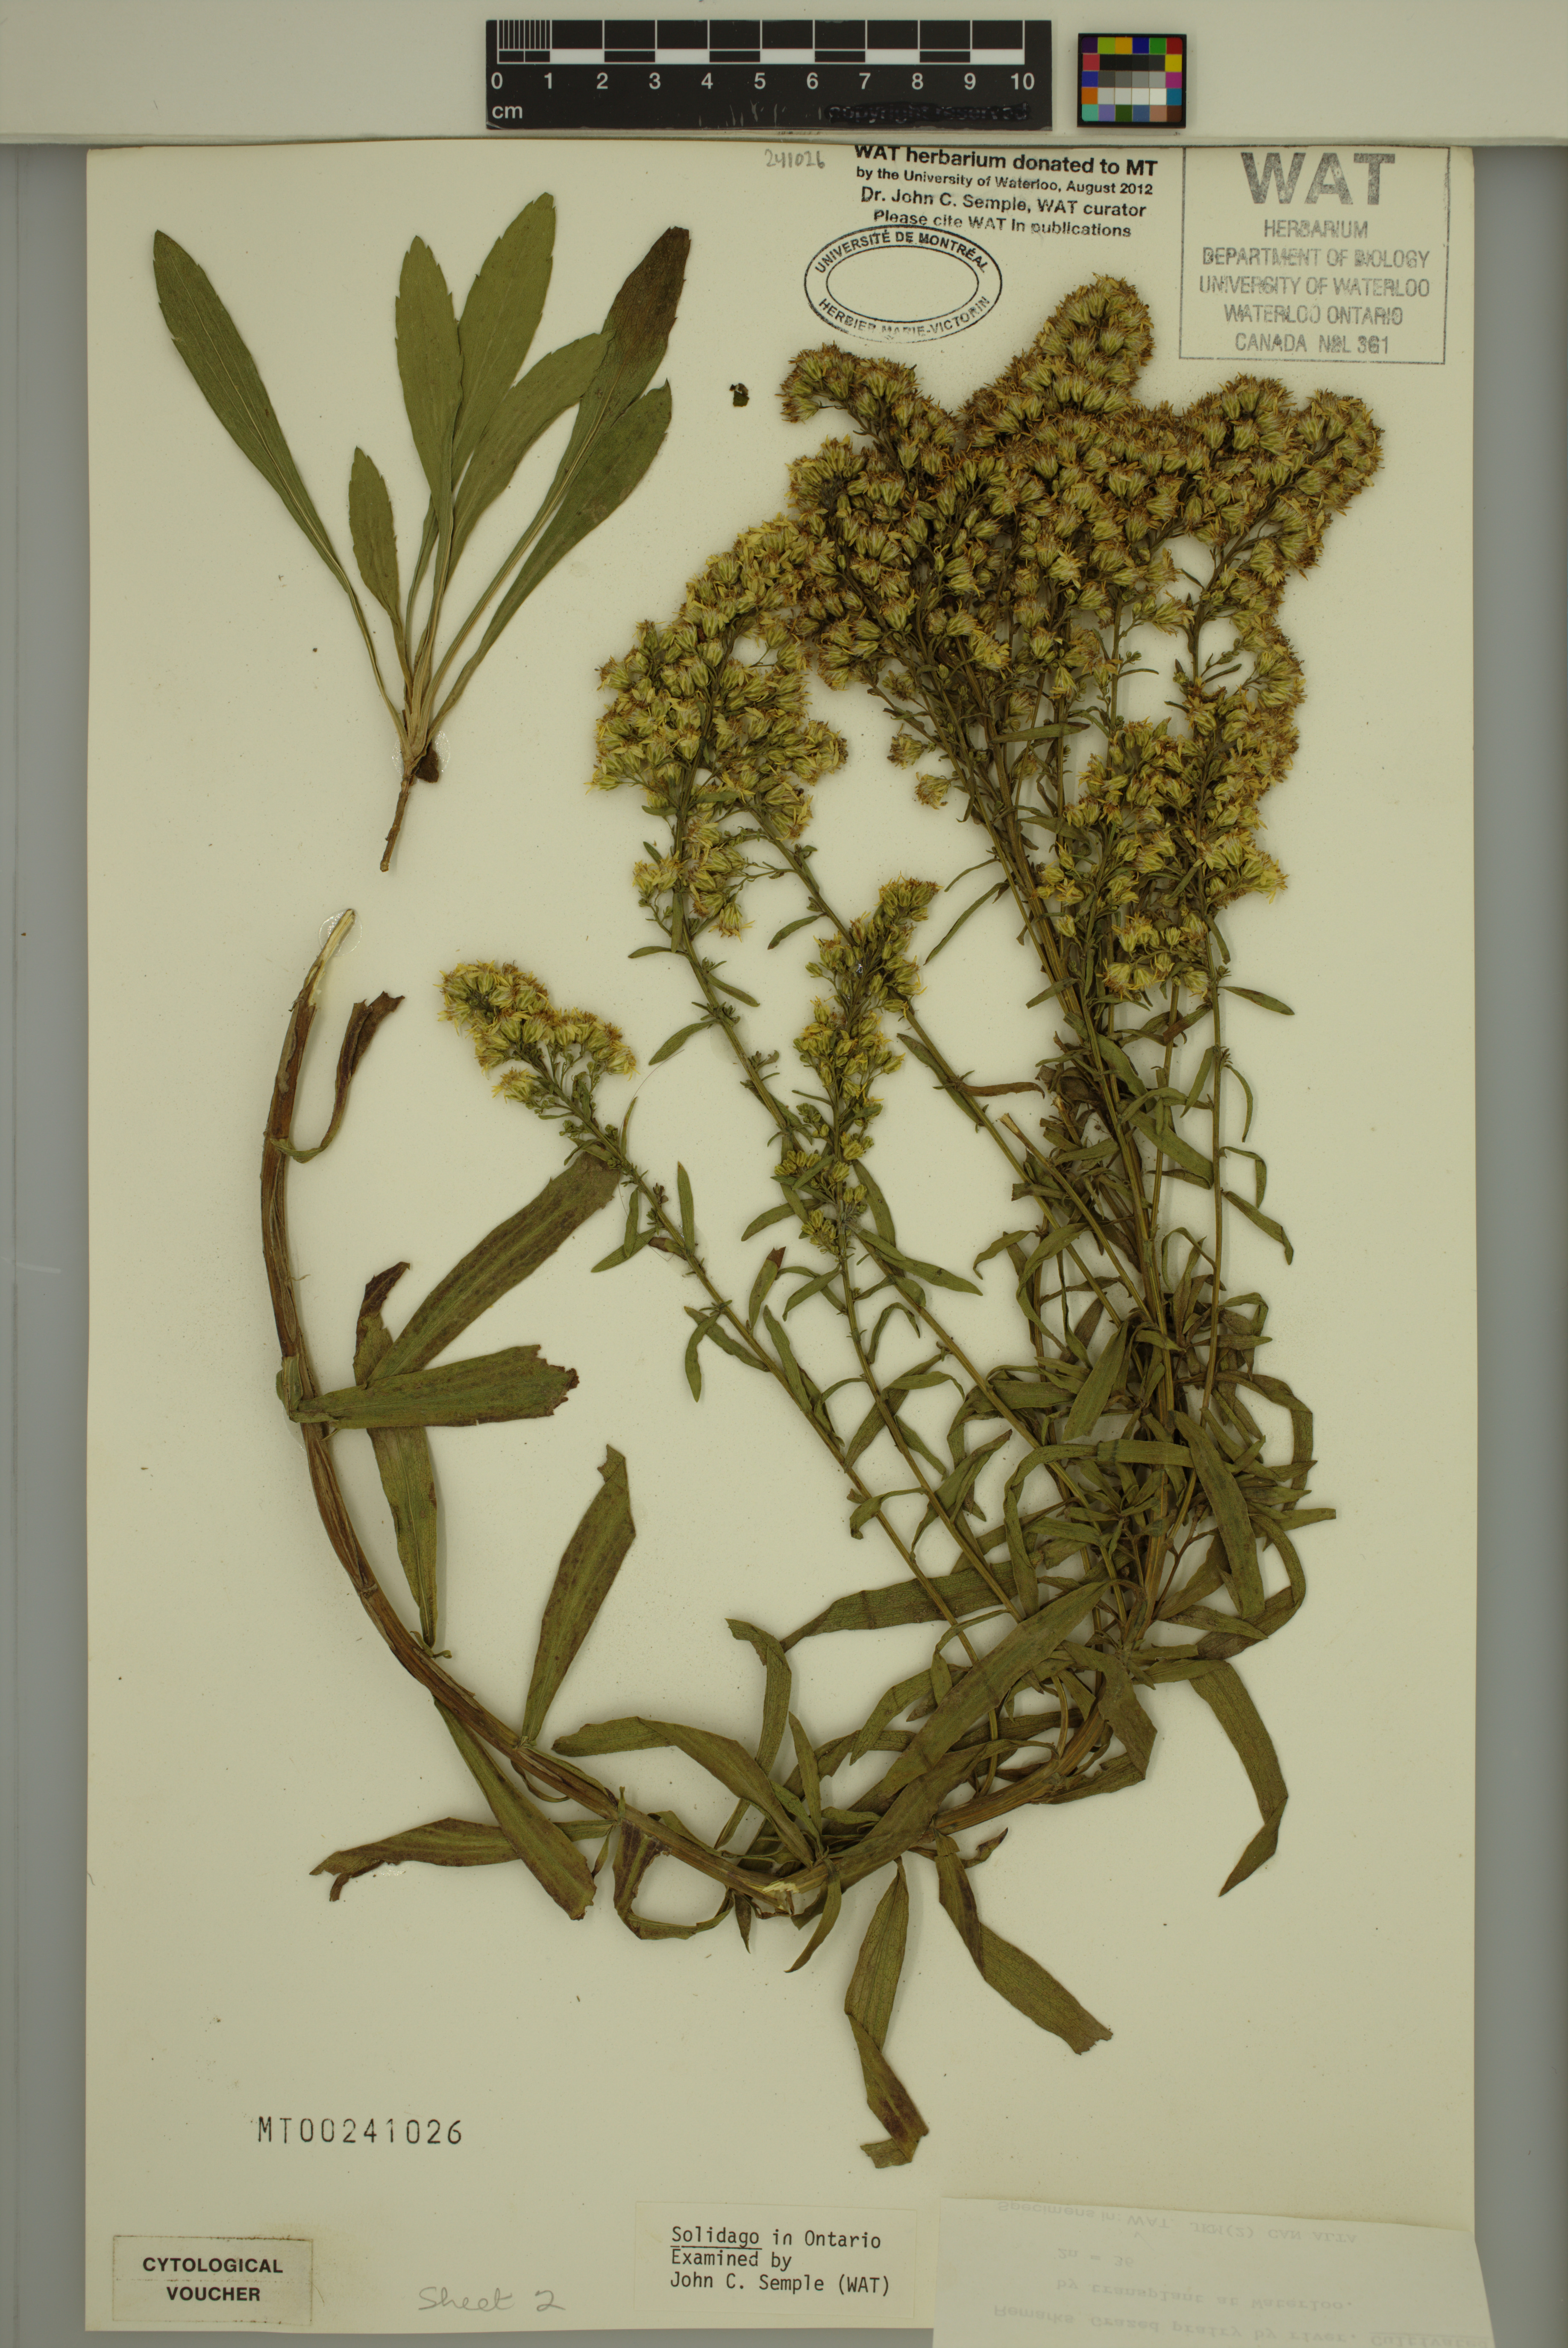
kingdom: Plantae
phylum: Tracheophyta
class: Magnoliopsida
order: Asterales
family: Asteraceae
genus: Solidago
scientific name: Solidago missouriensis
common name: Prairie goldenrod
